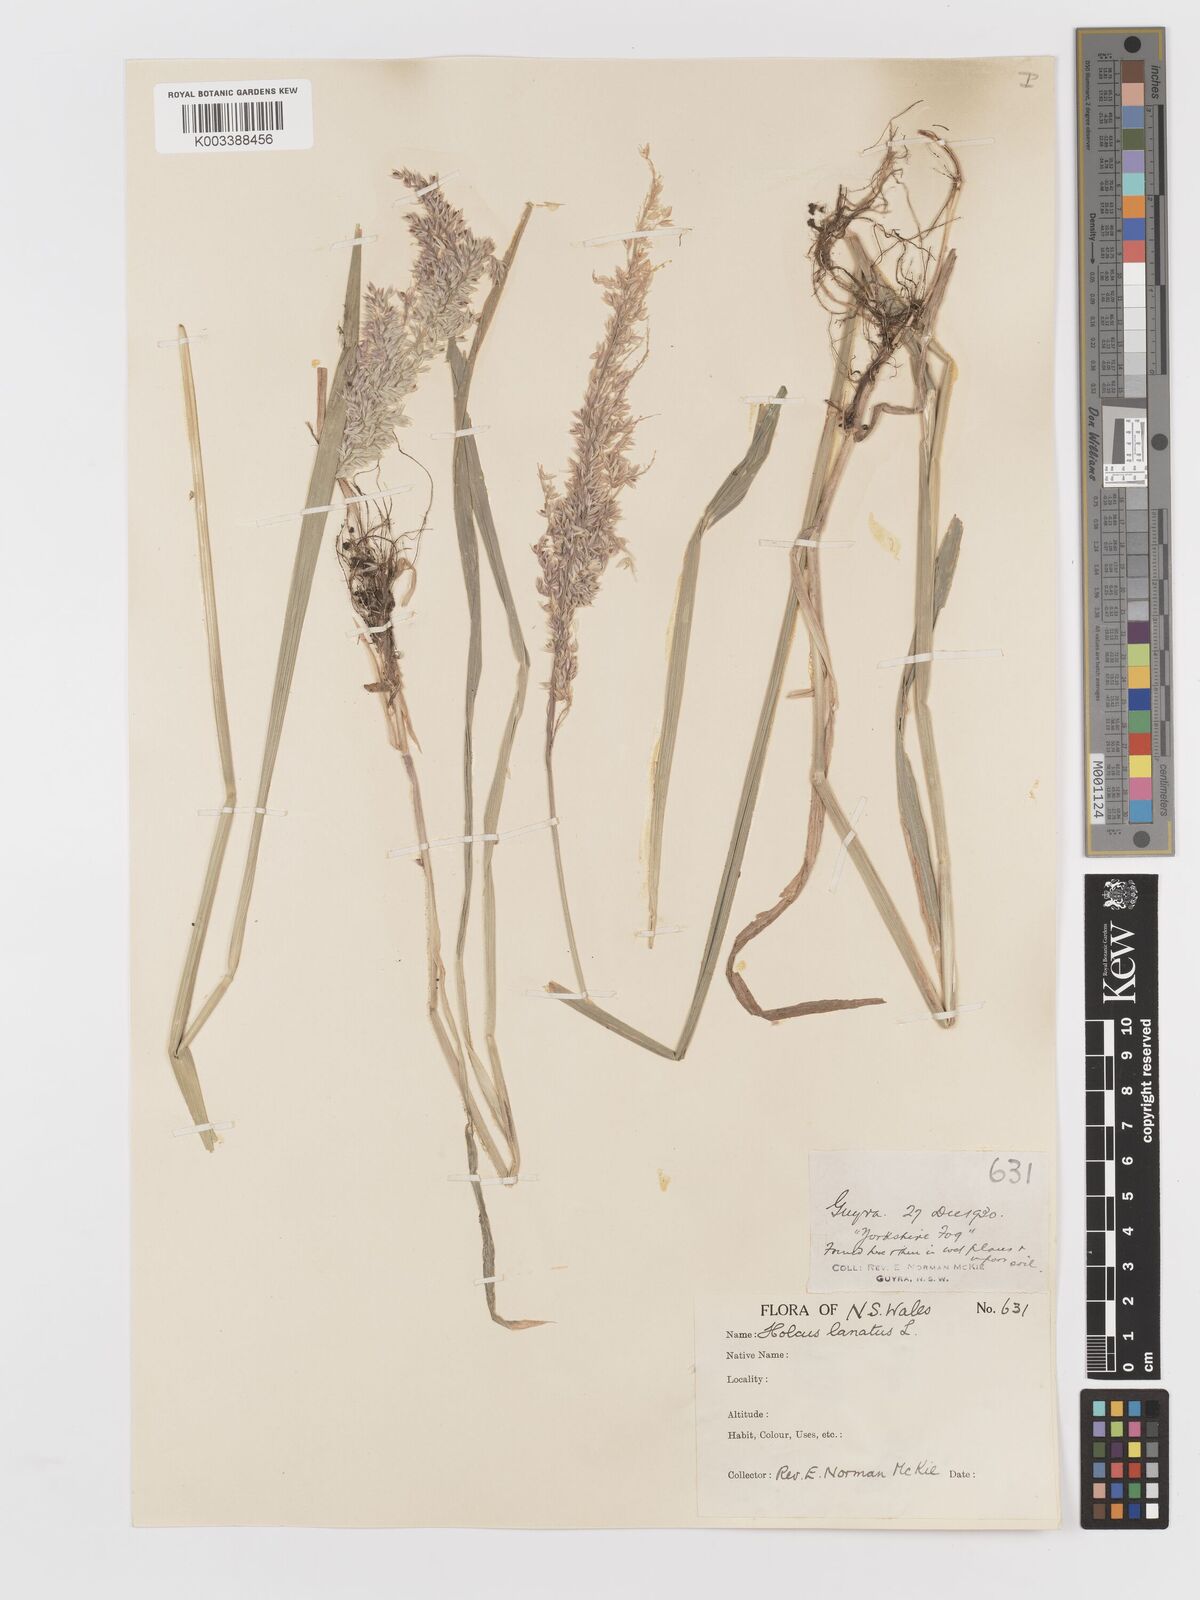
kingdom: Plantae
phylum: Tracheophyta
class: Liliopsida
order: Poales
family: Poaceae
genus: Holcus
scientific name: Holcus lanatus
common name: Yorkshire-fog
